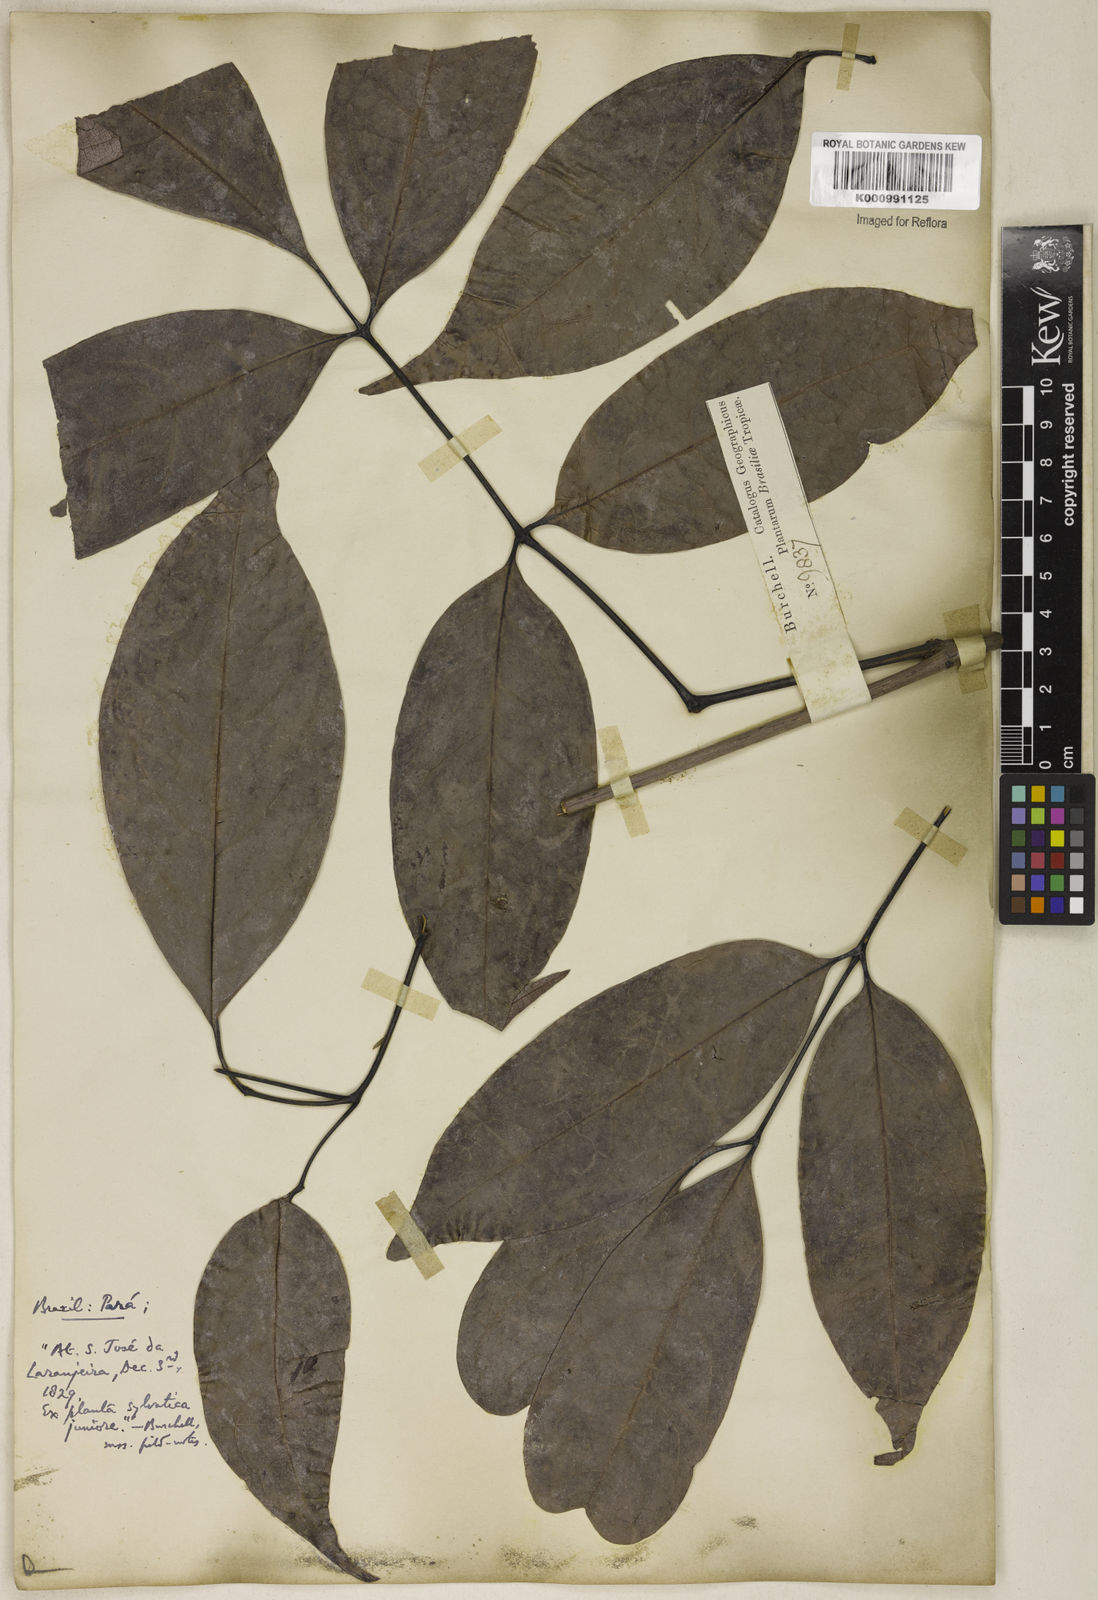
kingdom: Plantae
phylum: Tracheophyta
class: Magnoliopsida
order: Lamiales
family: Bignoniaceae
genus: Adenocalymma
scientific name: Adenocalymma
